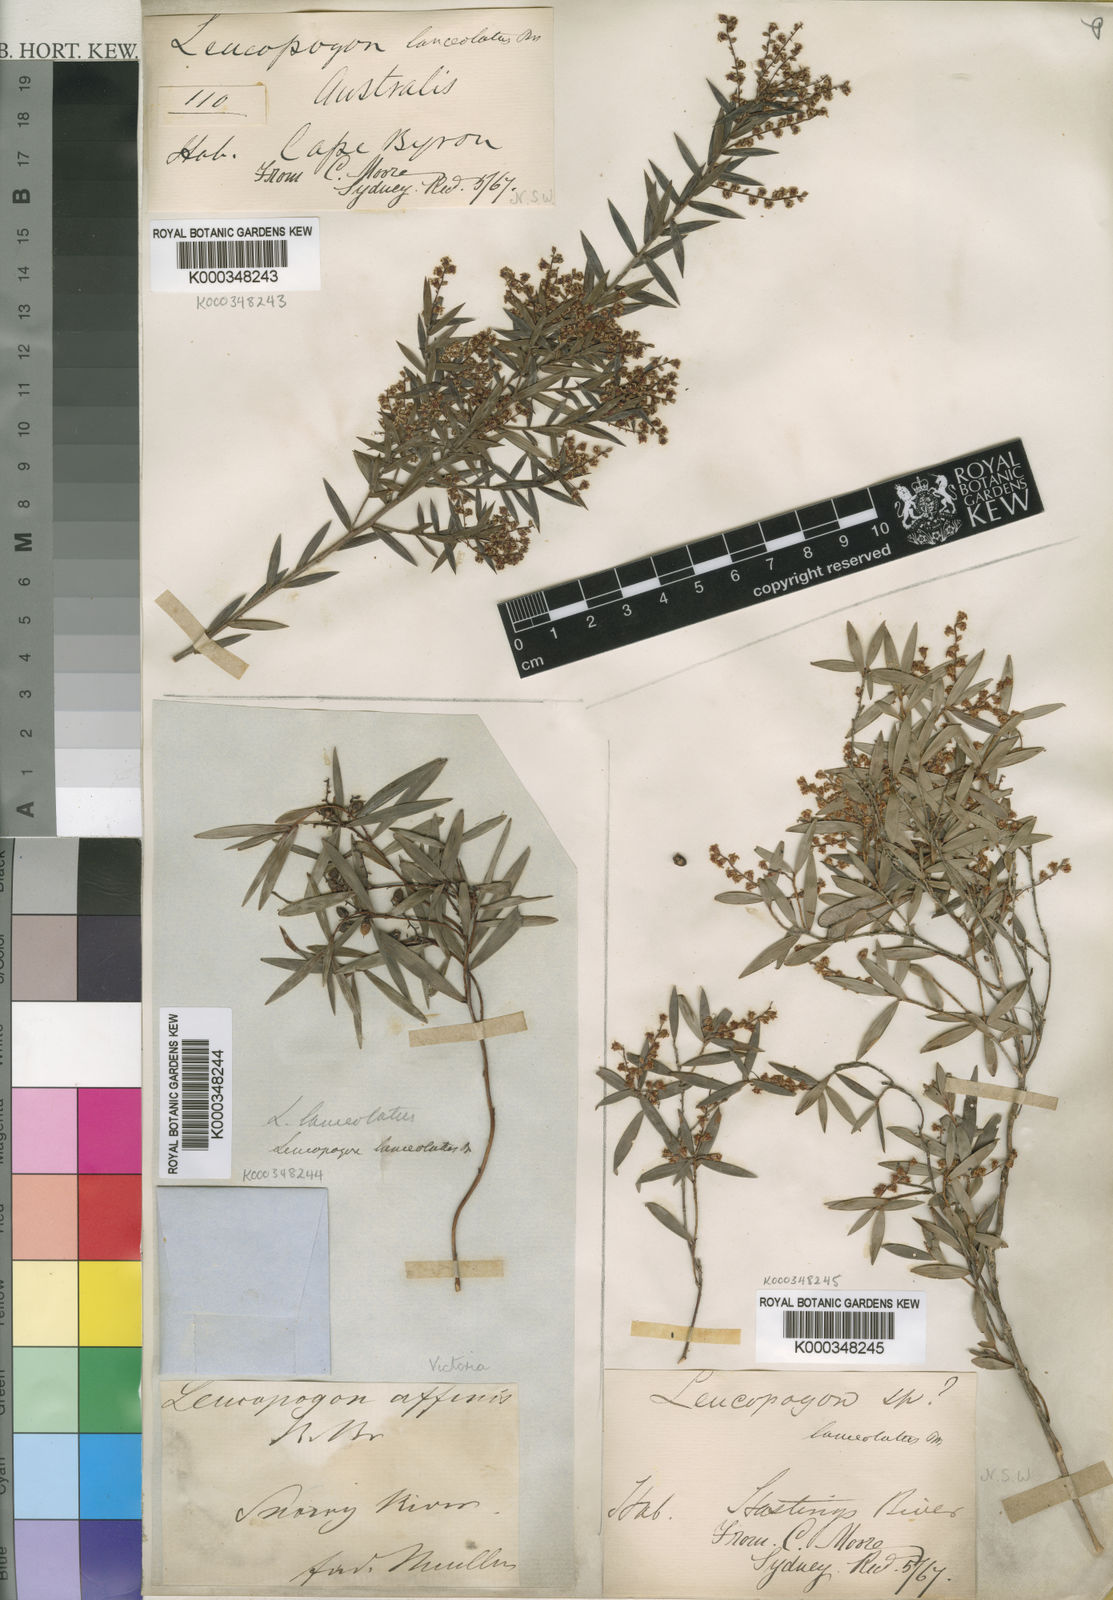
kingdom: Plantae
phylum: Tracheophyta
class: Magnoliopsida
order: Ericales
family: Ericaceae
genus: Leucopogon
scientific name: Leucopogon lanceolatus
